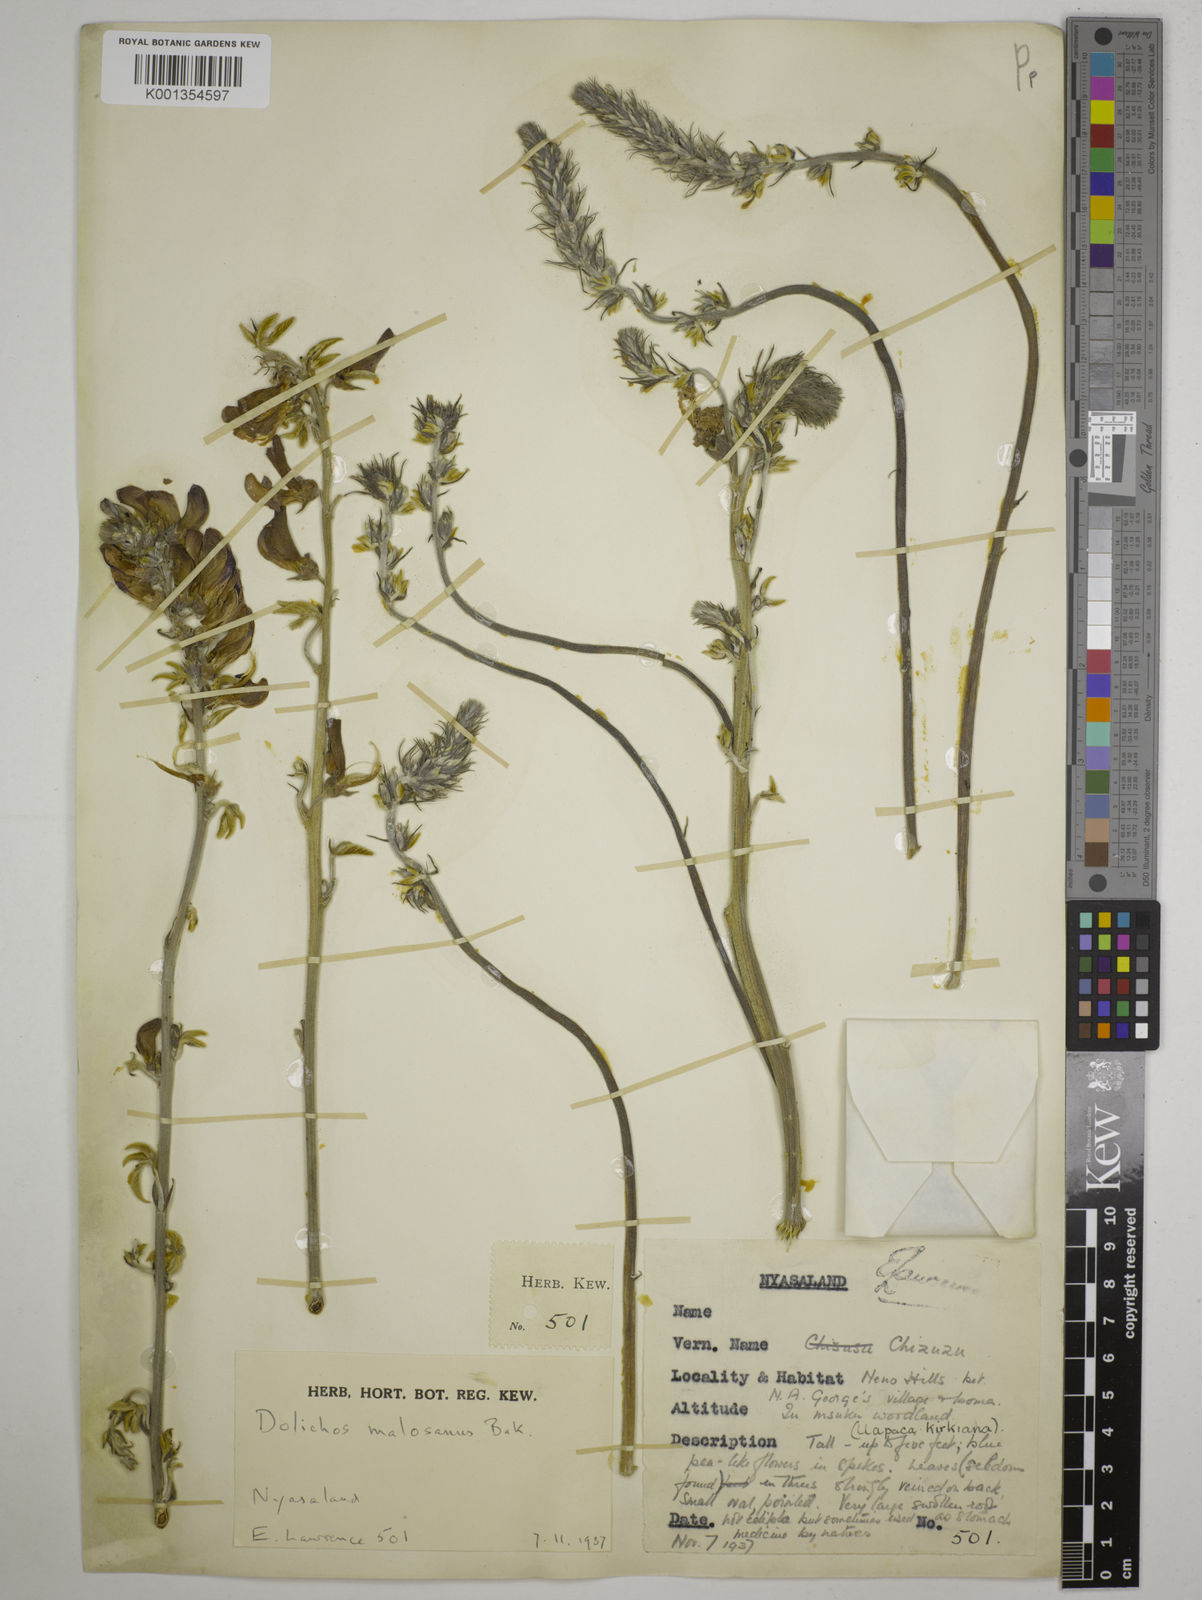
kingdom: Plantae
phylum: Tracheophyta
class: Magnoliopsida
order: Fabales
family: Fabaceae
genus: Dolichos
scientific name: Dolichos kilimandscharicus
